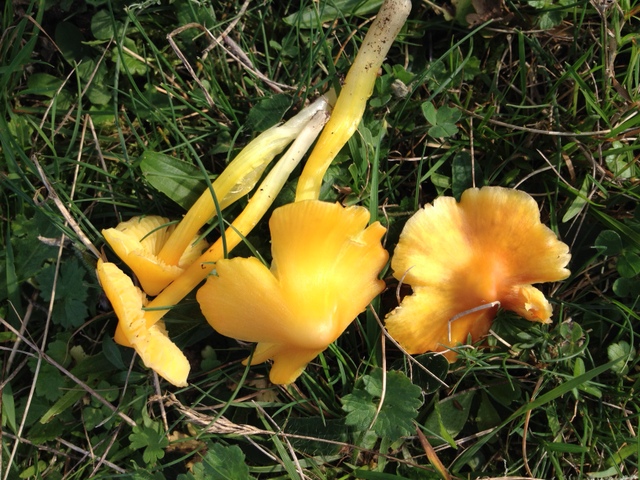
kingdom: Fungi
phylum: Basidiomycota
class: Agaricomycetes
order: Agaricales
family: Hygrophoraceae
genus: Hygrocybe
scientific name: Hygrocybe acutoconica
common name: spidspuklet vokshat
